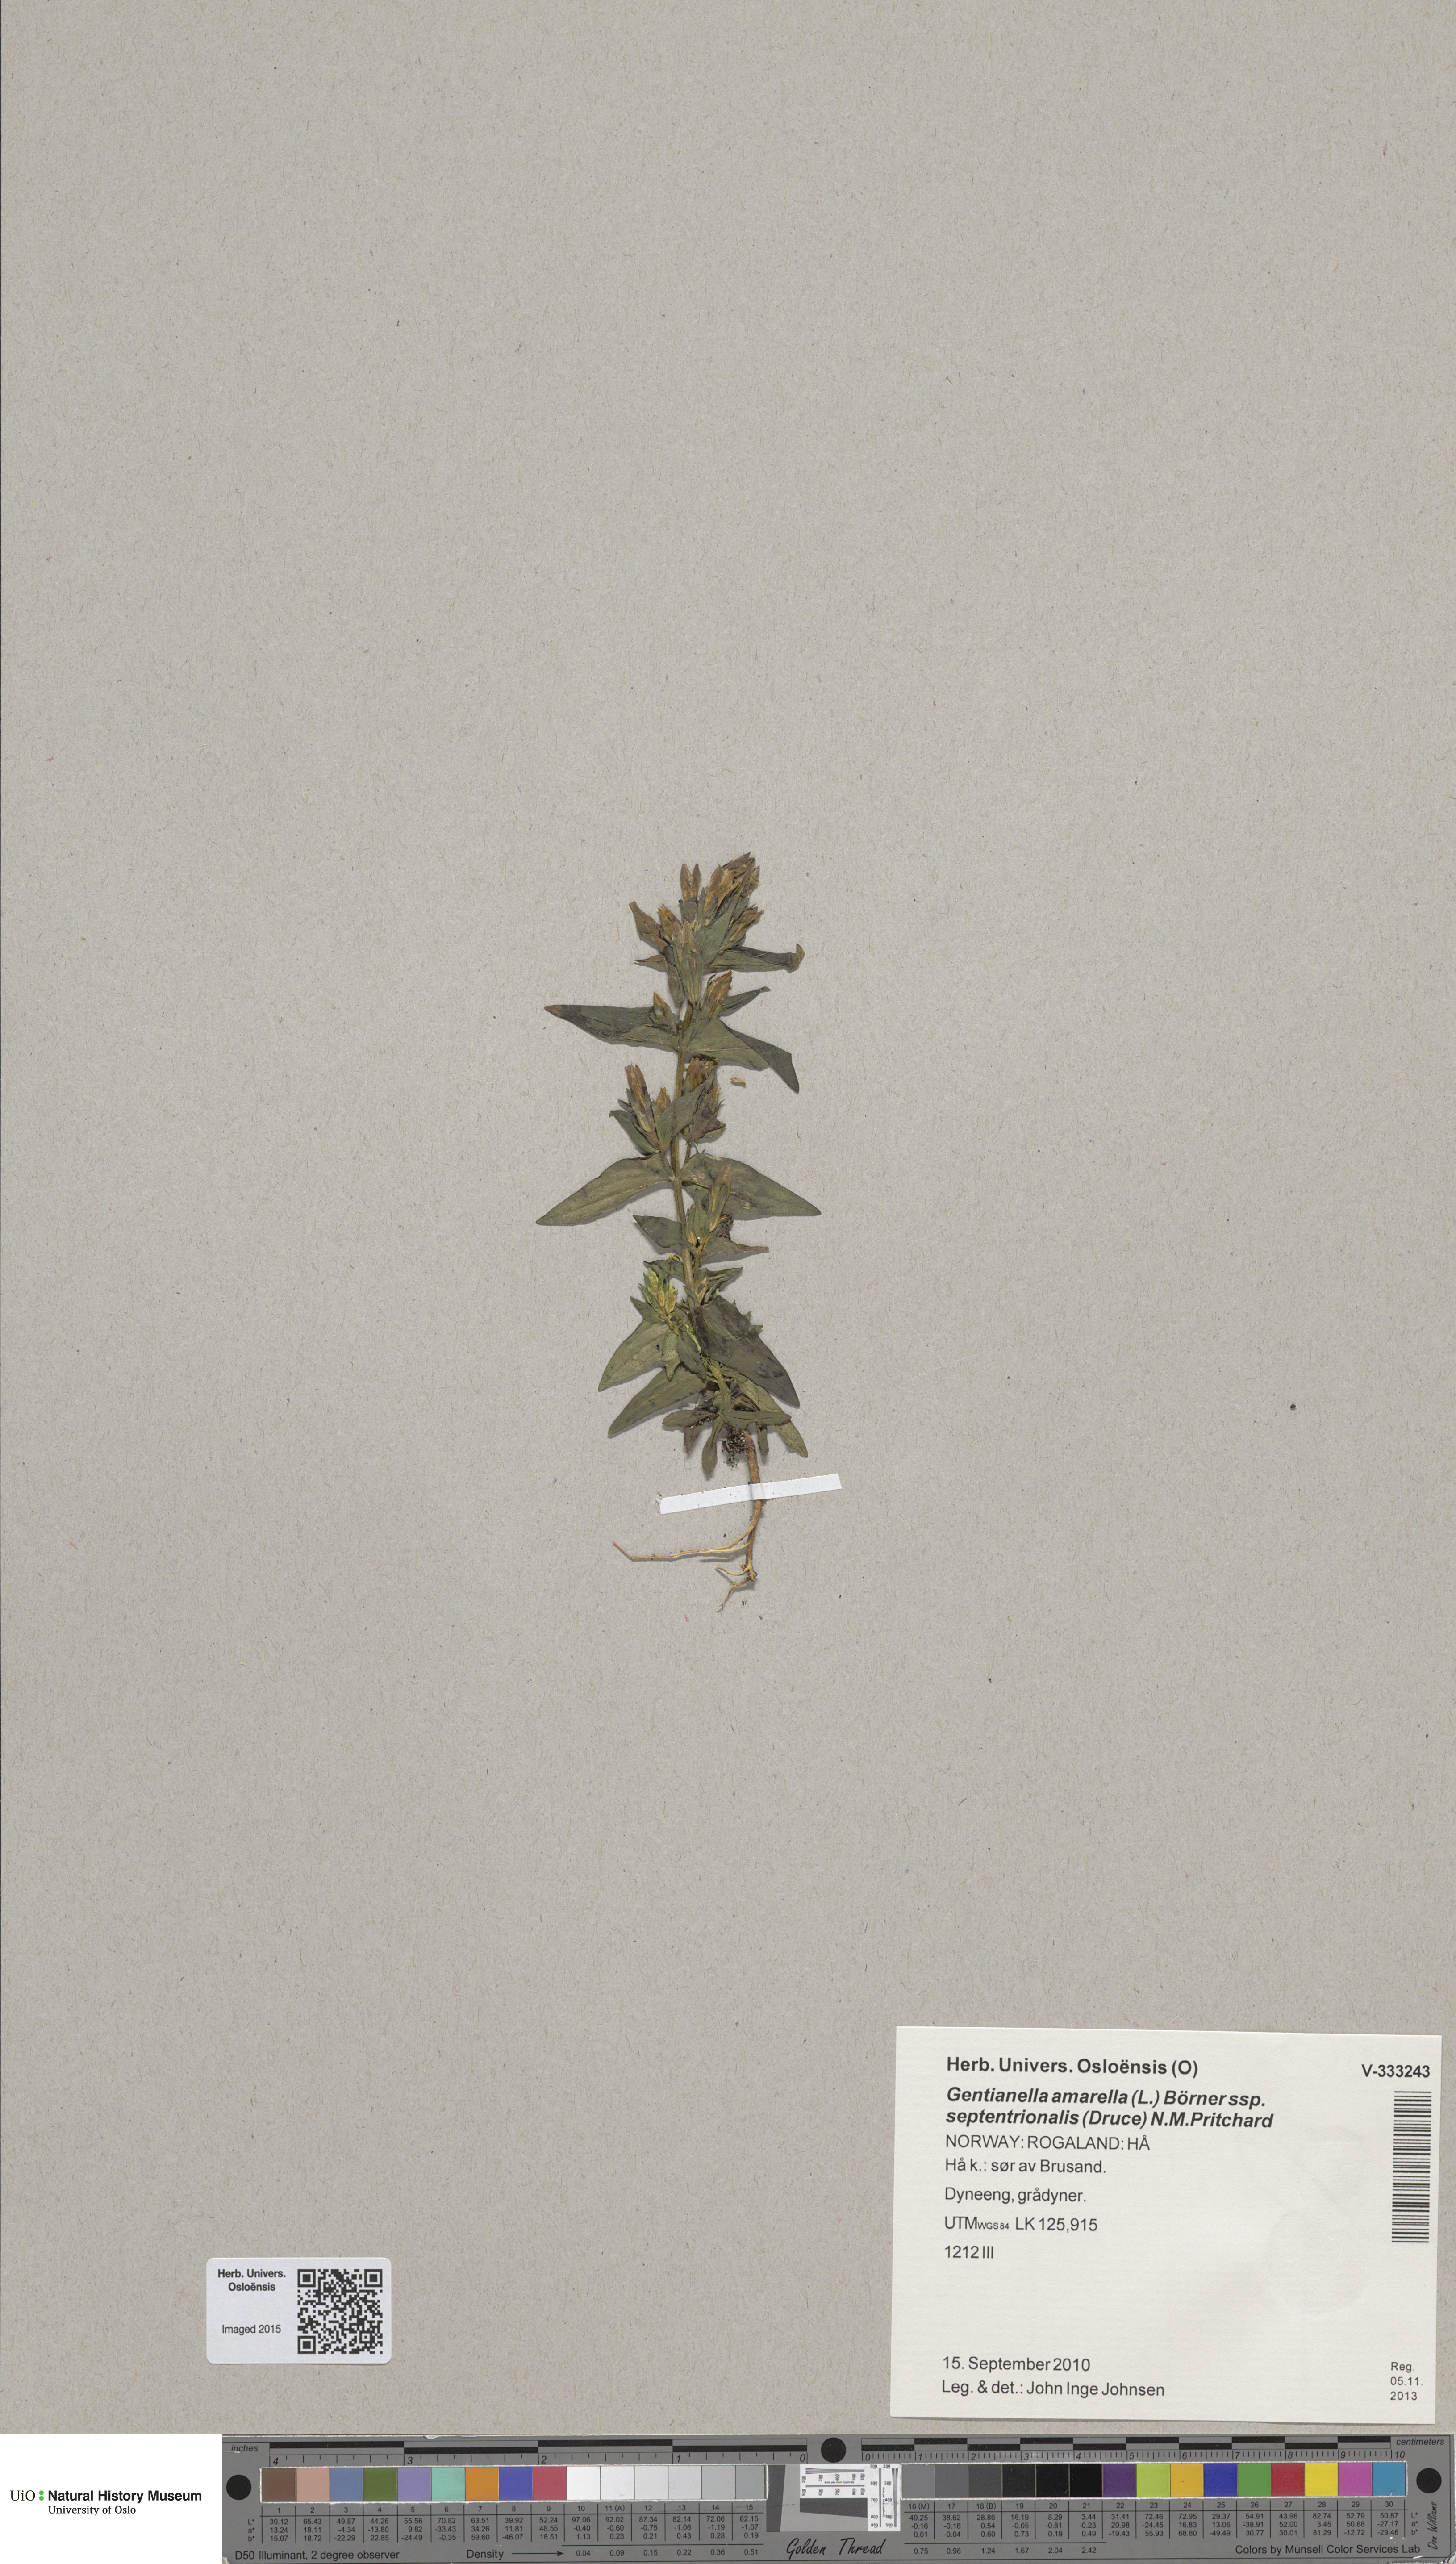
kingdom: Plantae
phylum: Tracheophyta
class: Magnoliopsida
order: Gentianales
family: Gentianaceae
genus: Gentianella
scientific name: Gentianella amarella
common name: Autumn gentian
